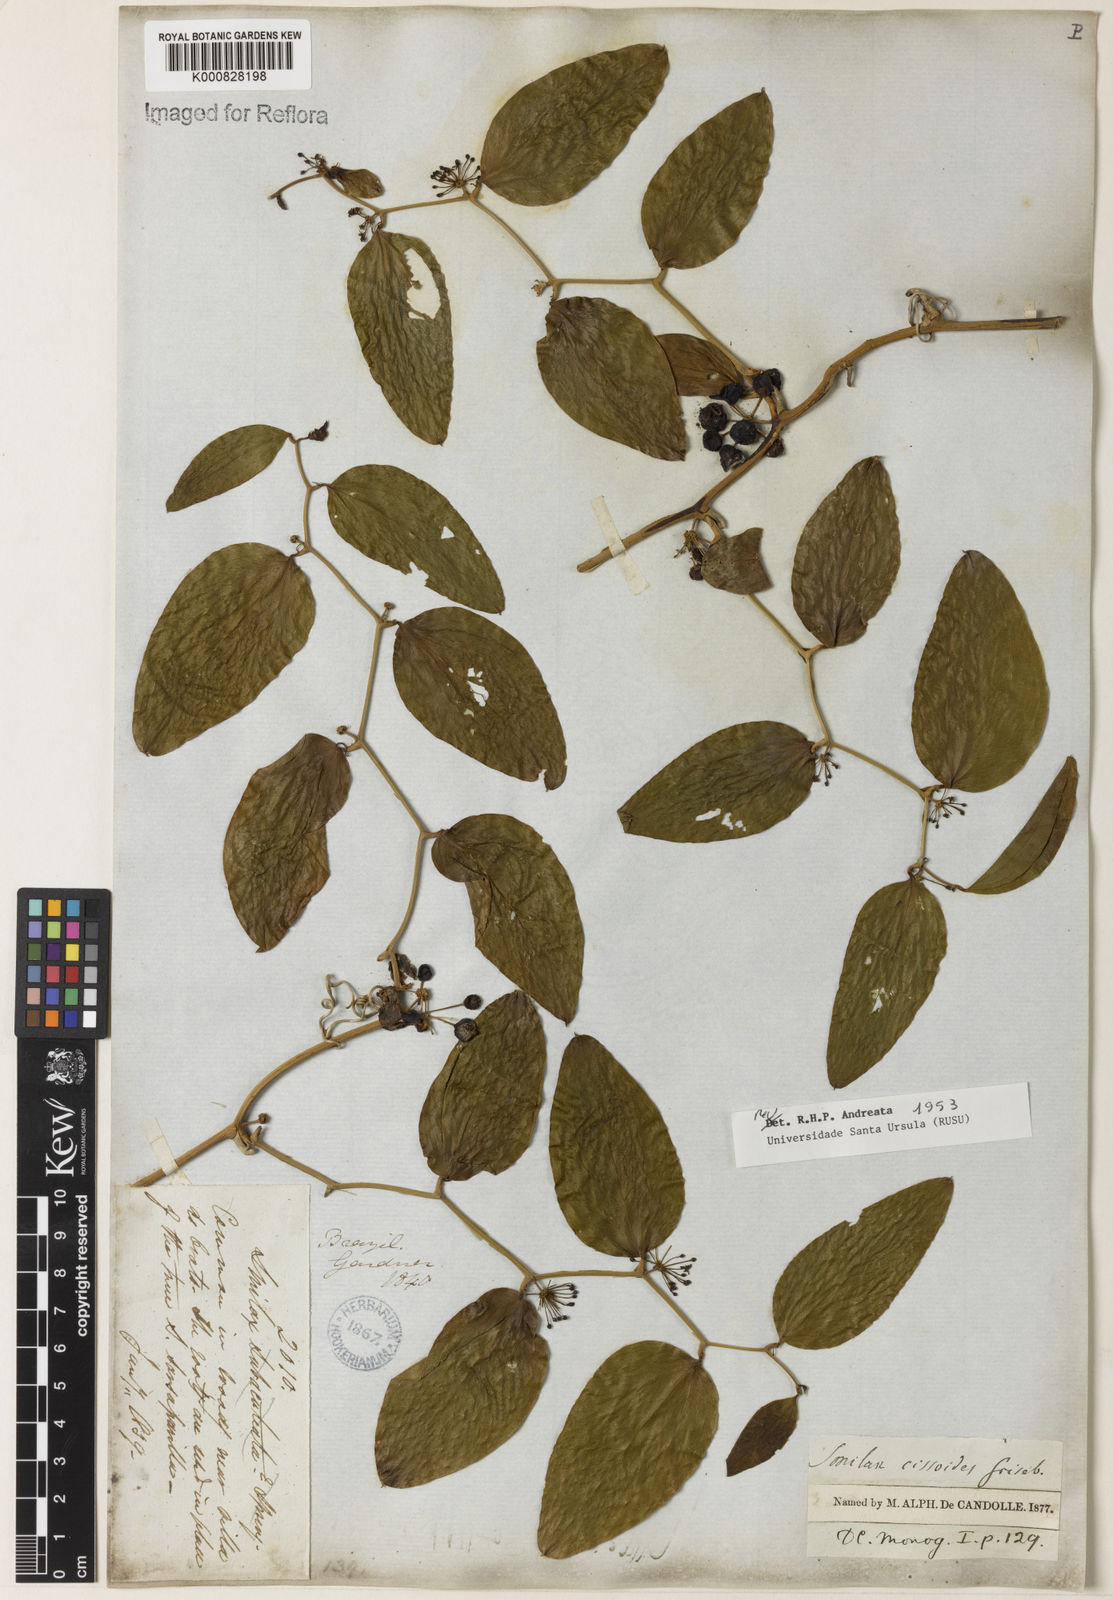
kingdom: Plantae
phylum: Tracheophyta
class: Liliopsida
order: Liliales
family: Smilacaceae
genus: Smilax
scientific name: Smilax
